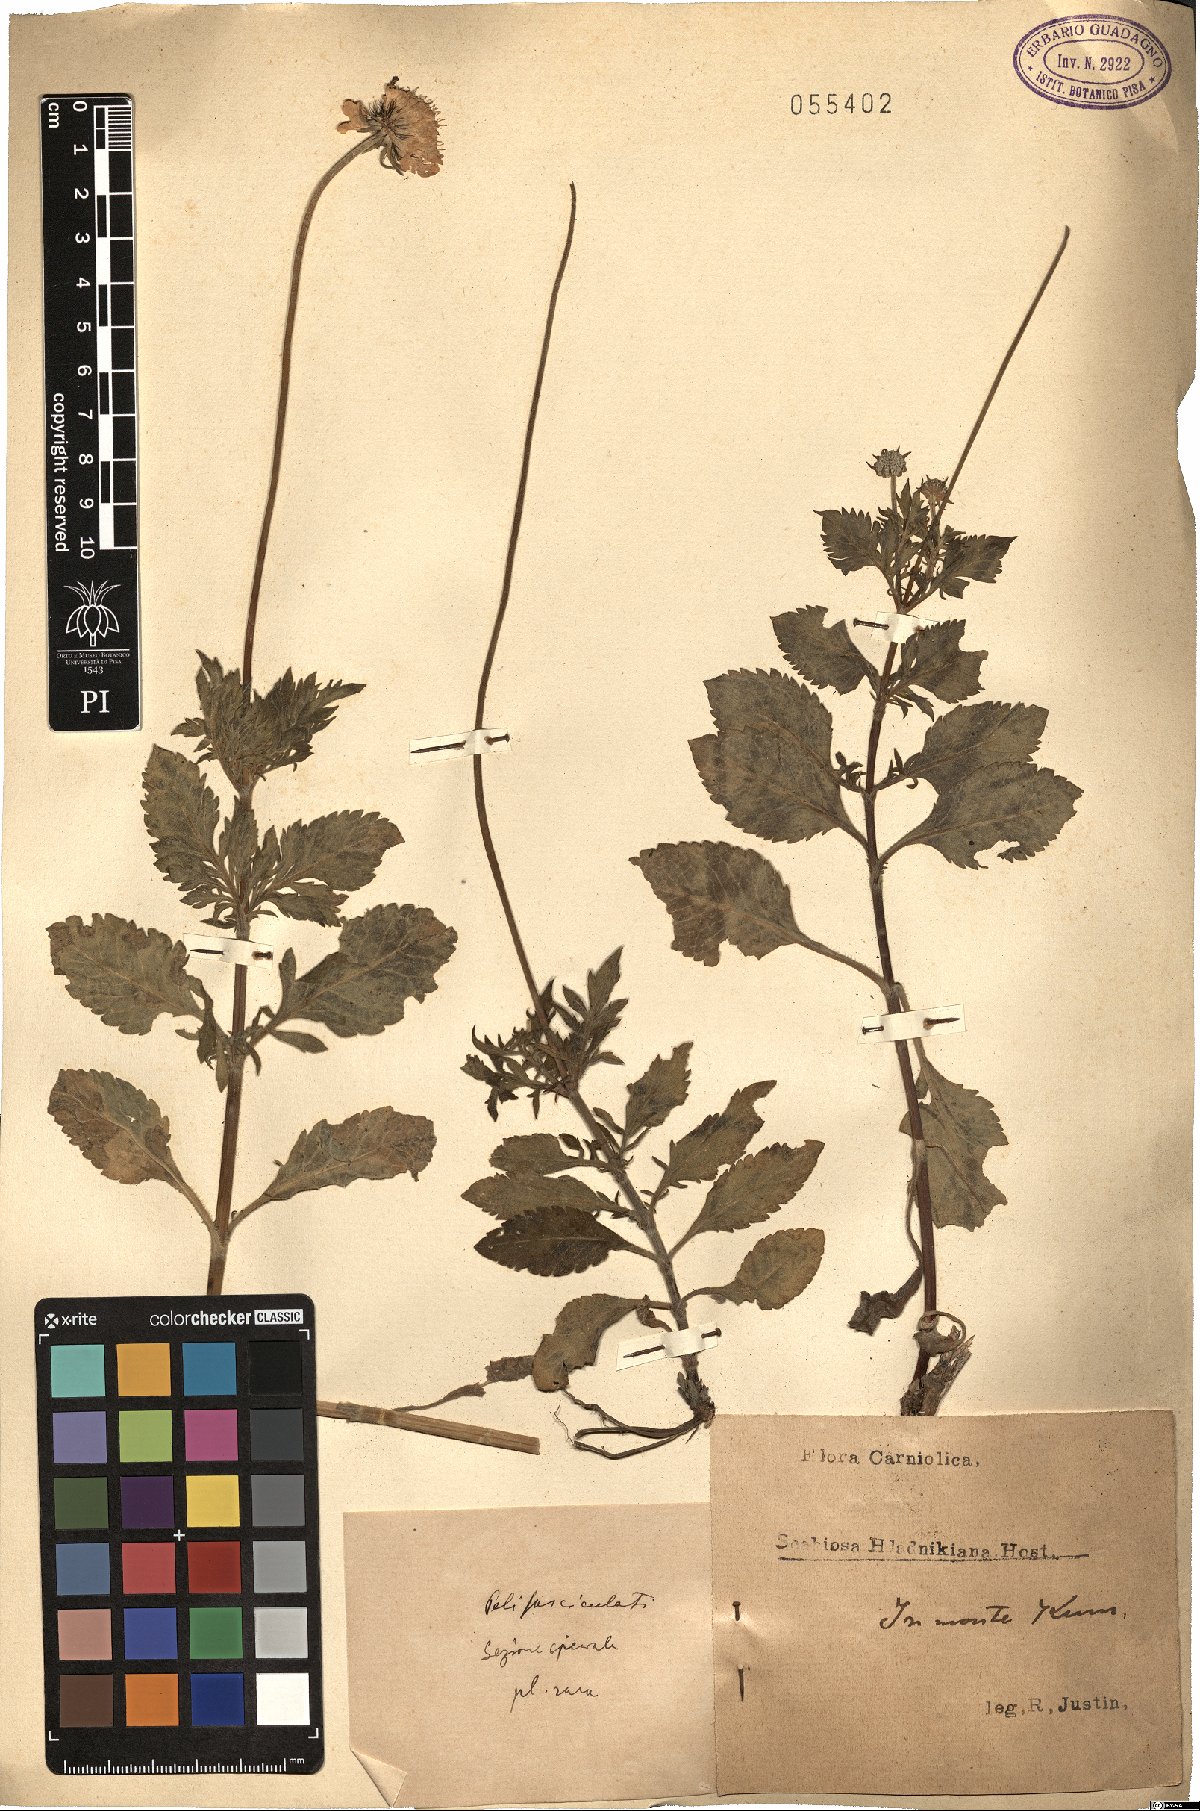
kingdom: Plantae
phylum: Tracheophyta
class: Magnoliopsida
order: Dipsacales
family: Caprifoliaceae
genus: Scabiosa
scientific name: Scabiosa hladnikiana
